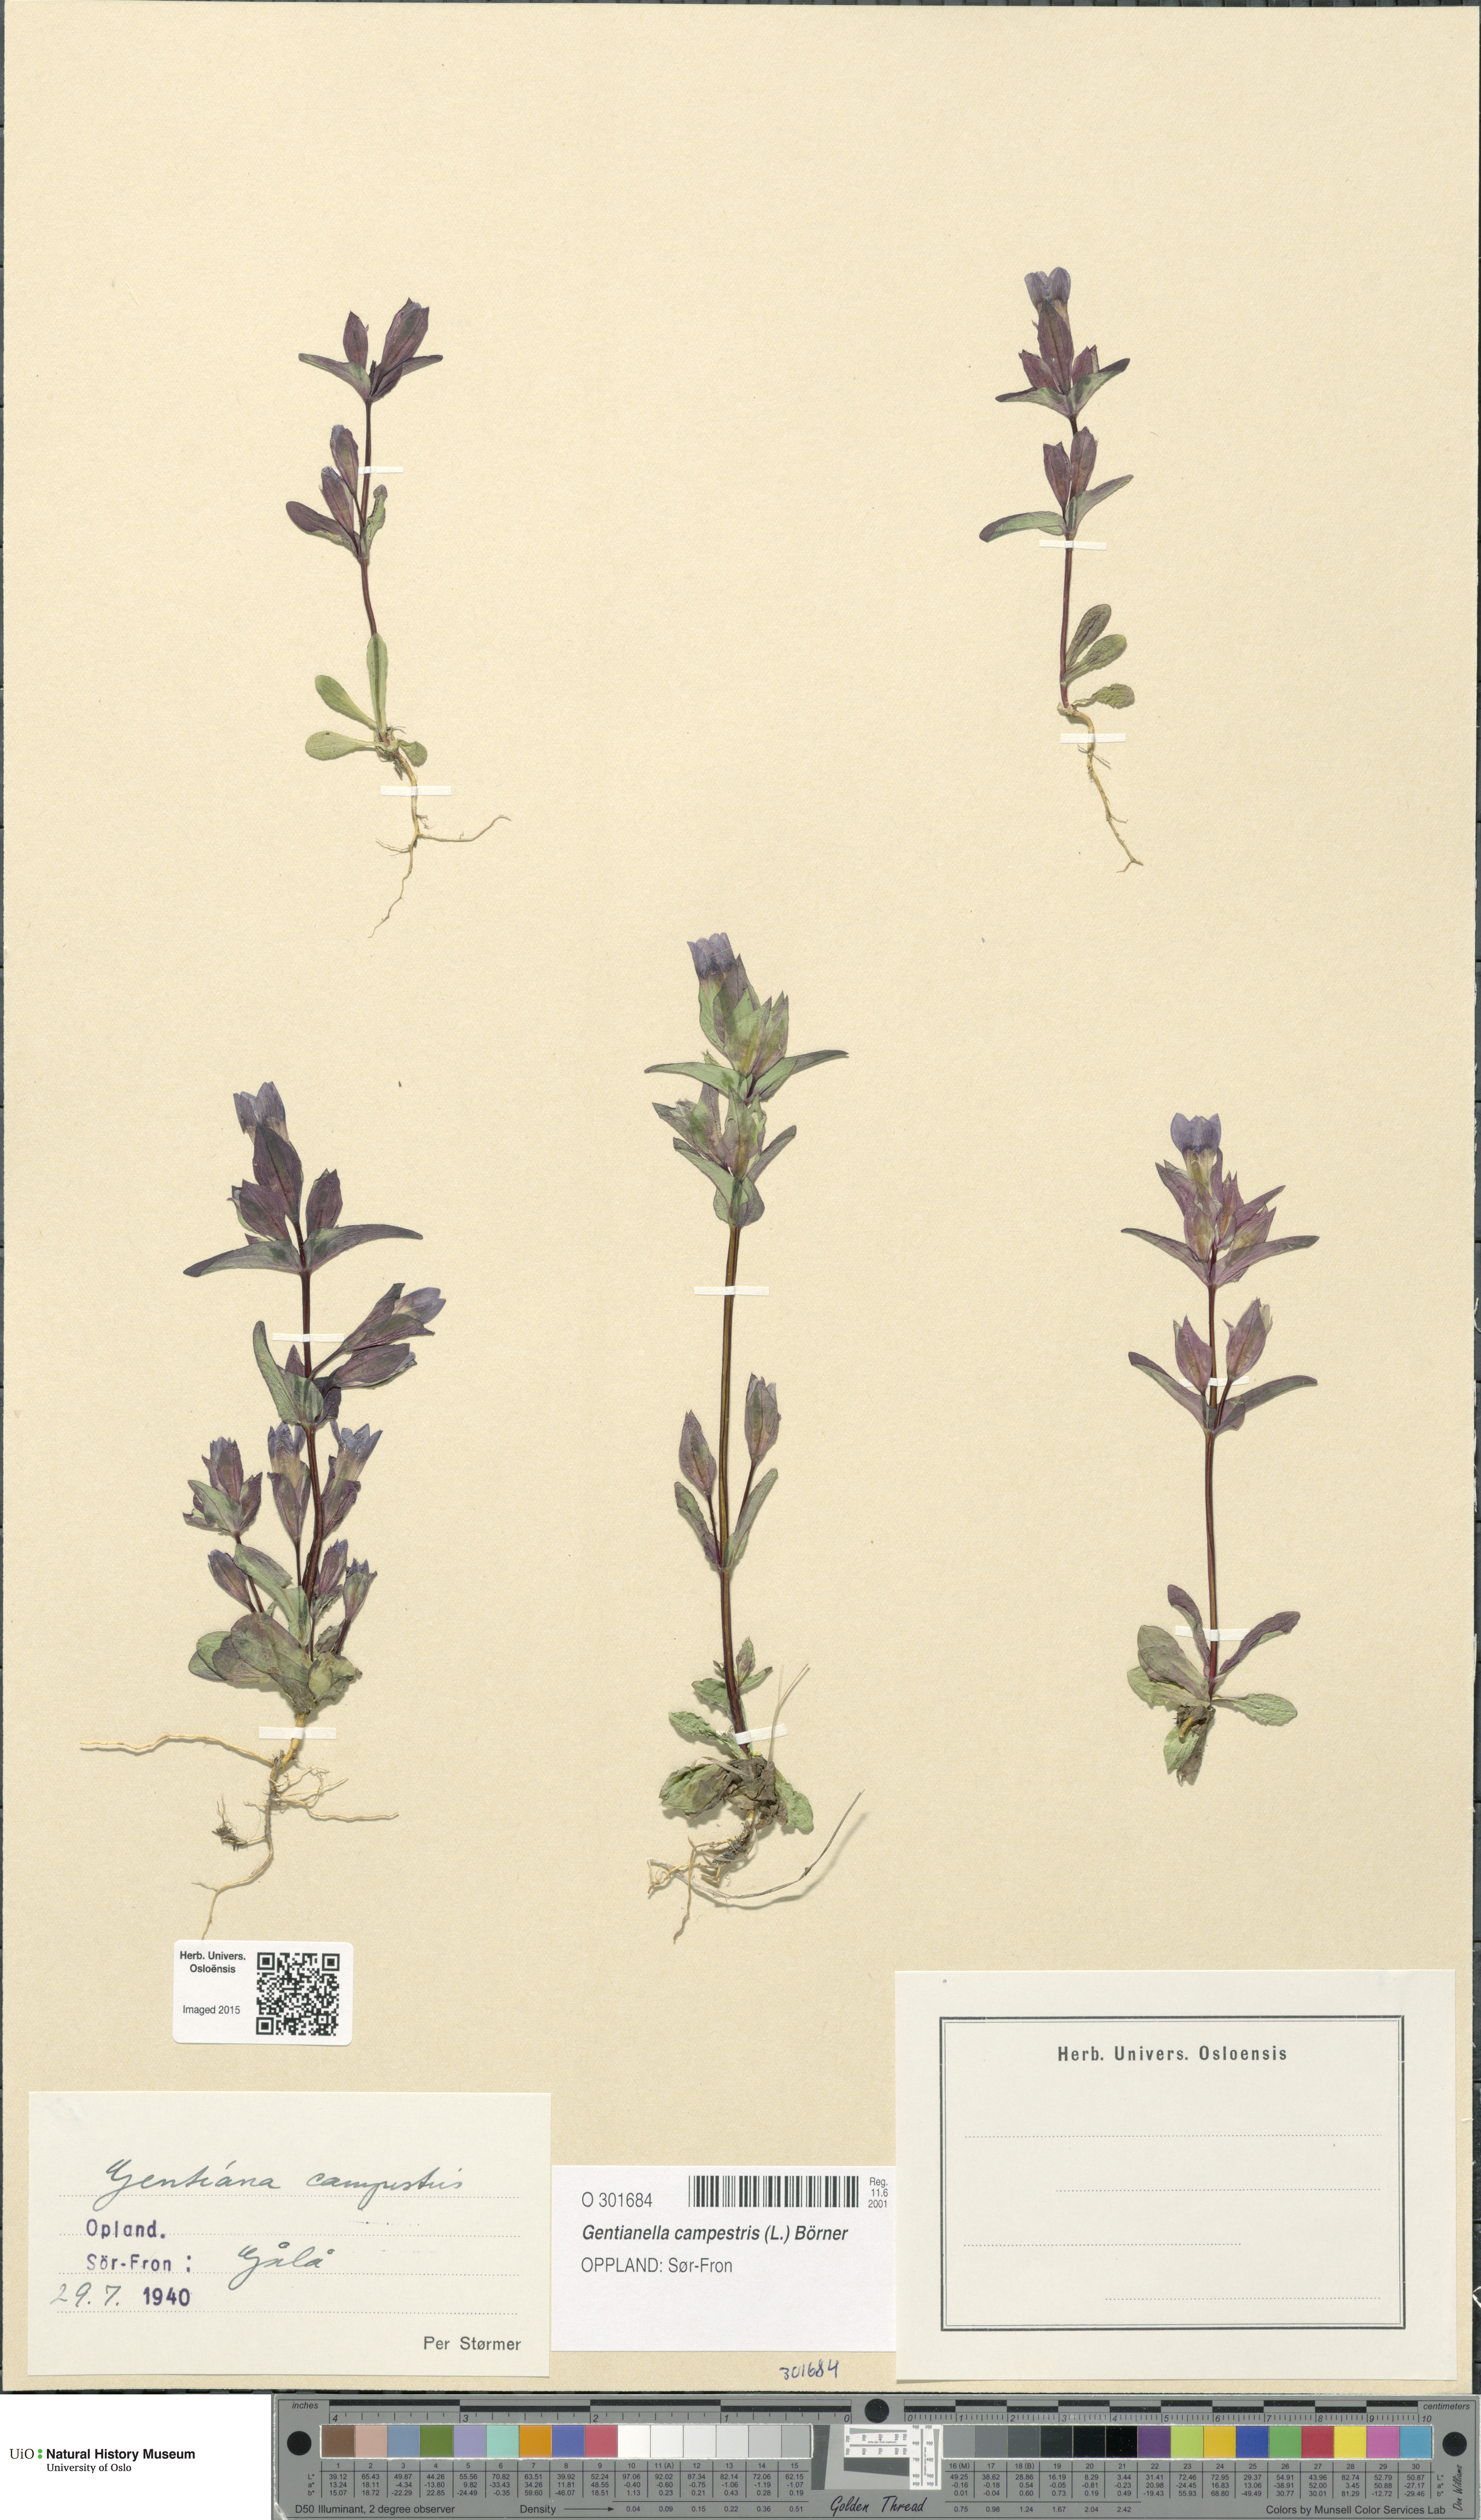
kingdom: Plantae
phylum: Tracheophyta
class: Magnoliopsida
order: Gentianales
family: Gentianaceae
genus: Gentianella
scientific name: Gentianella campestris
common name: Field gentian
